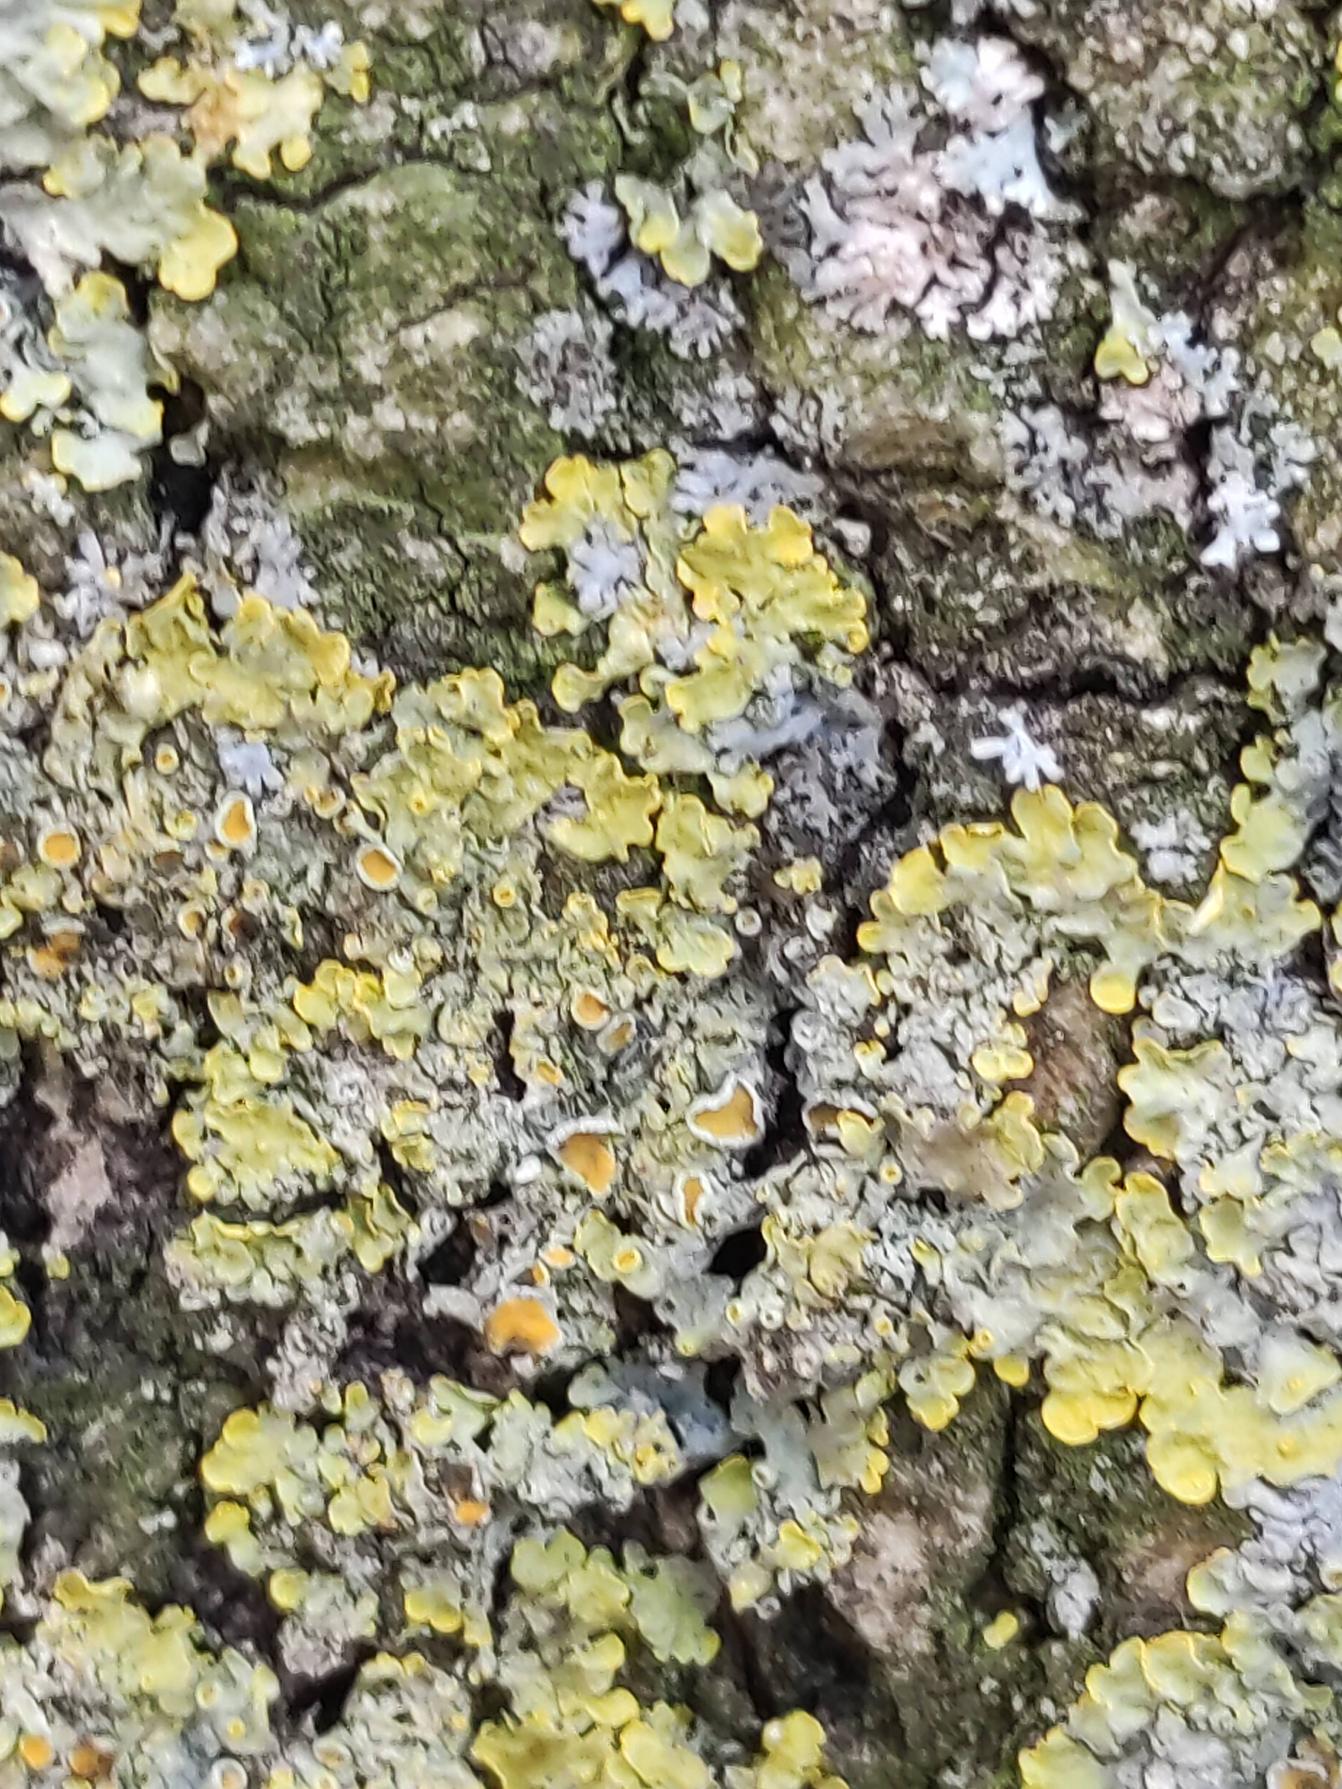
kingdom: Fungi
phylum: Ascomycota
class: Lecanoromycetes
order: Teloschistales
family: Teloschistaceae
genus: Xanthoria
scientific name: Xanthoria parietina
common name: Almindelig væggelav
